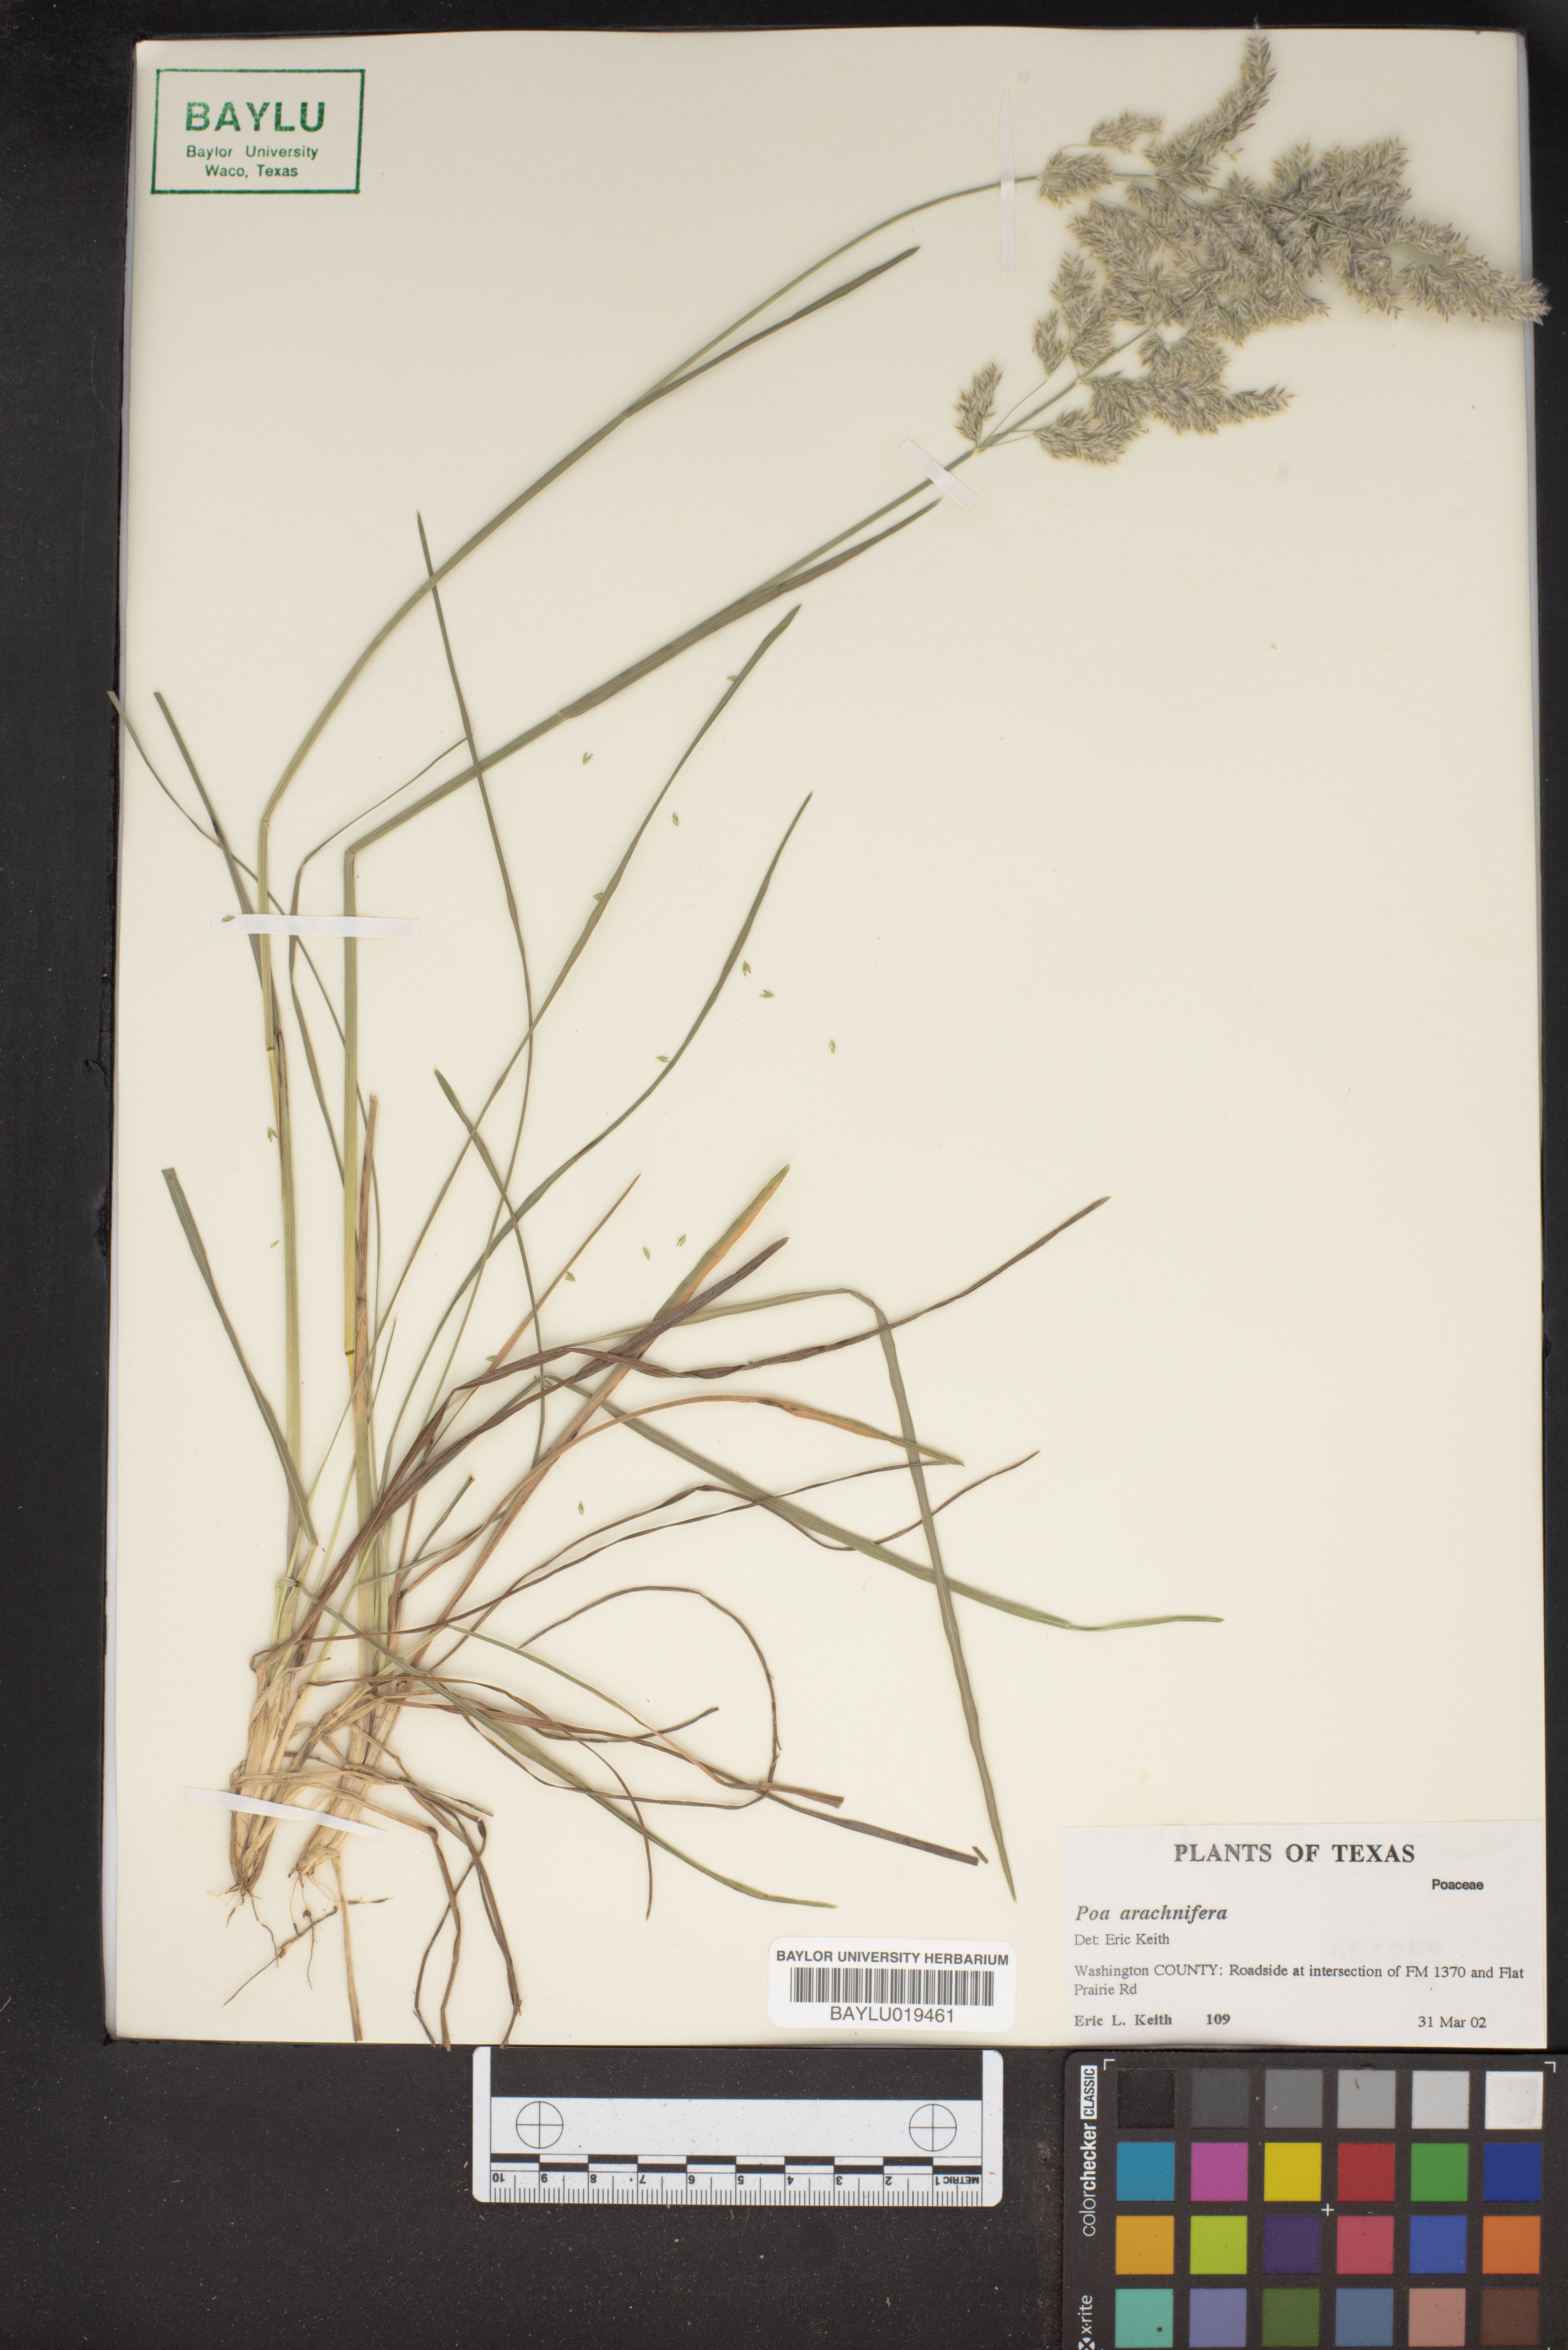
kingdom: Plantae
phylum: Tracheophyta
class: Liliopsida
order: Poales
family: Poaceae
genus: Poa
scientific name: Poa arachnifera
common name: Texas bluegrass
